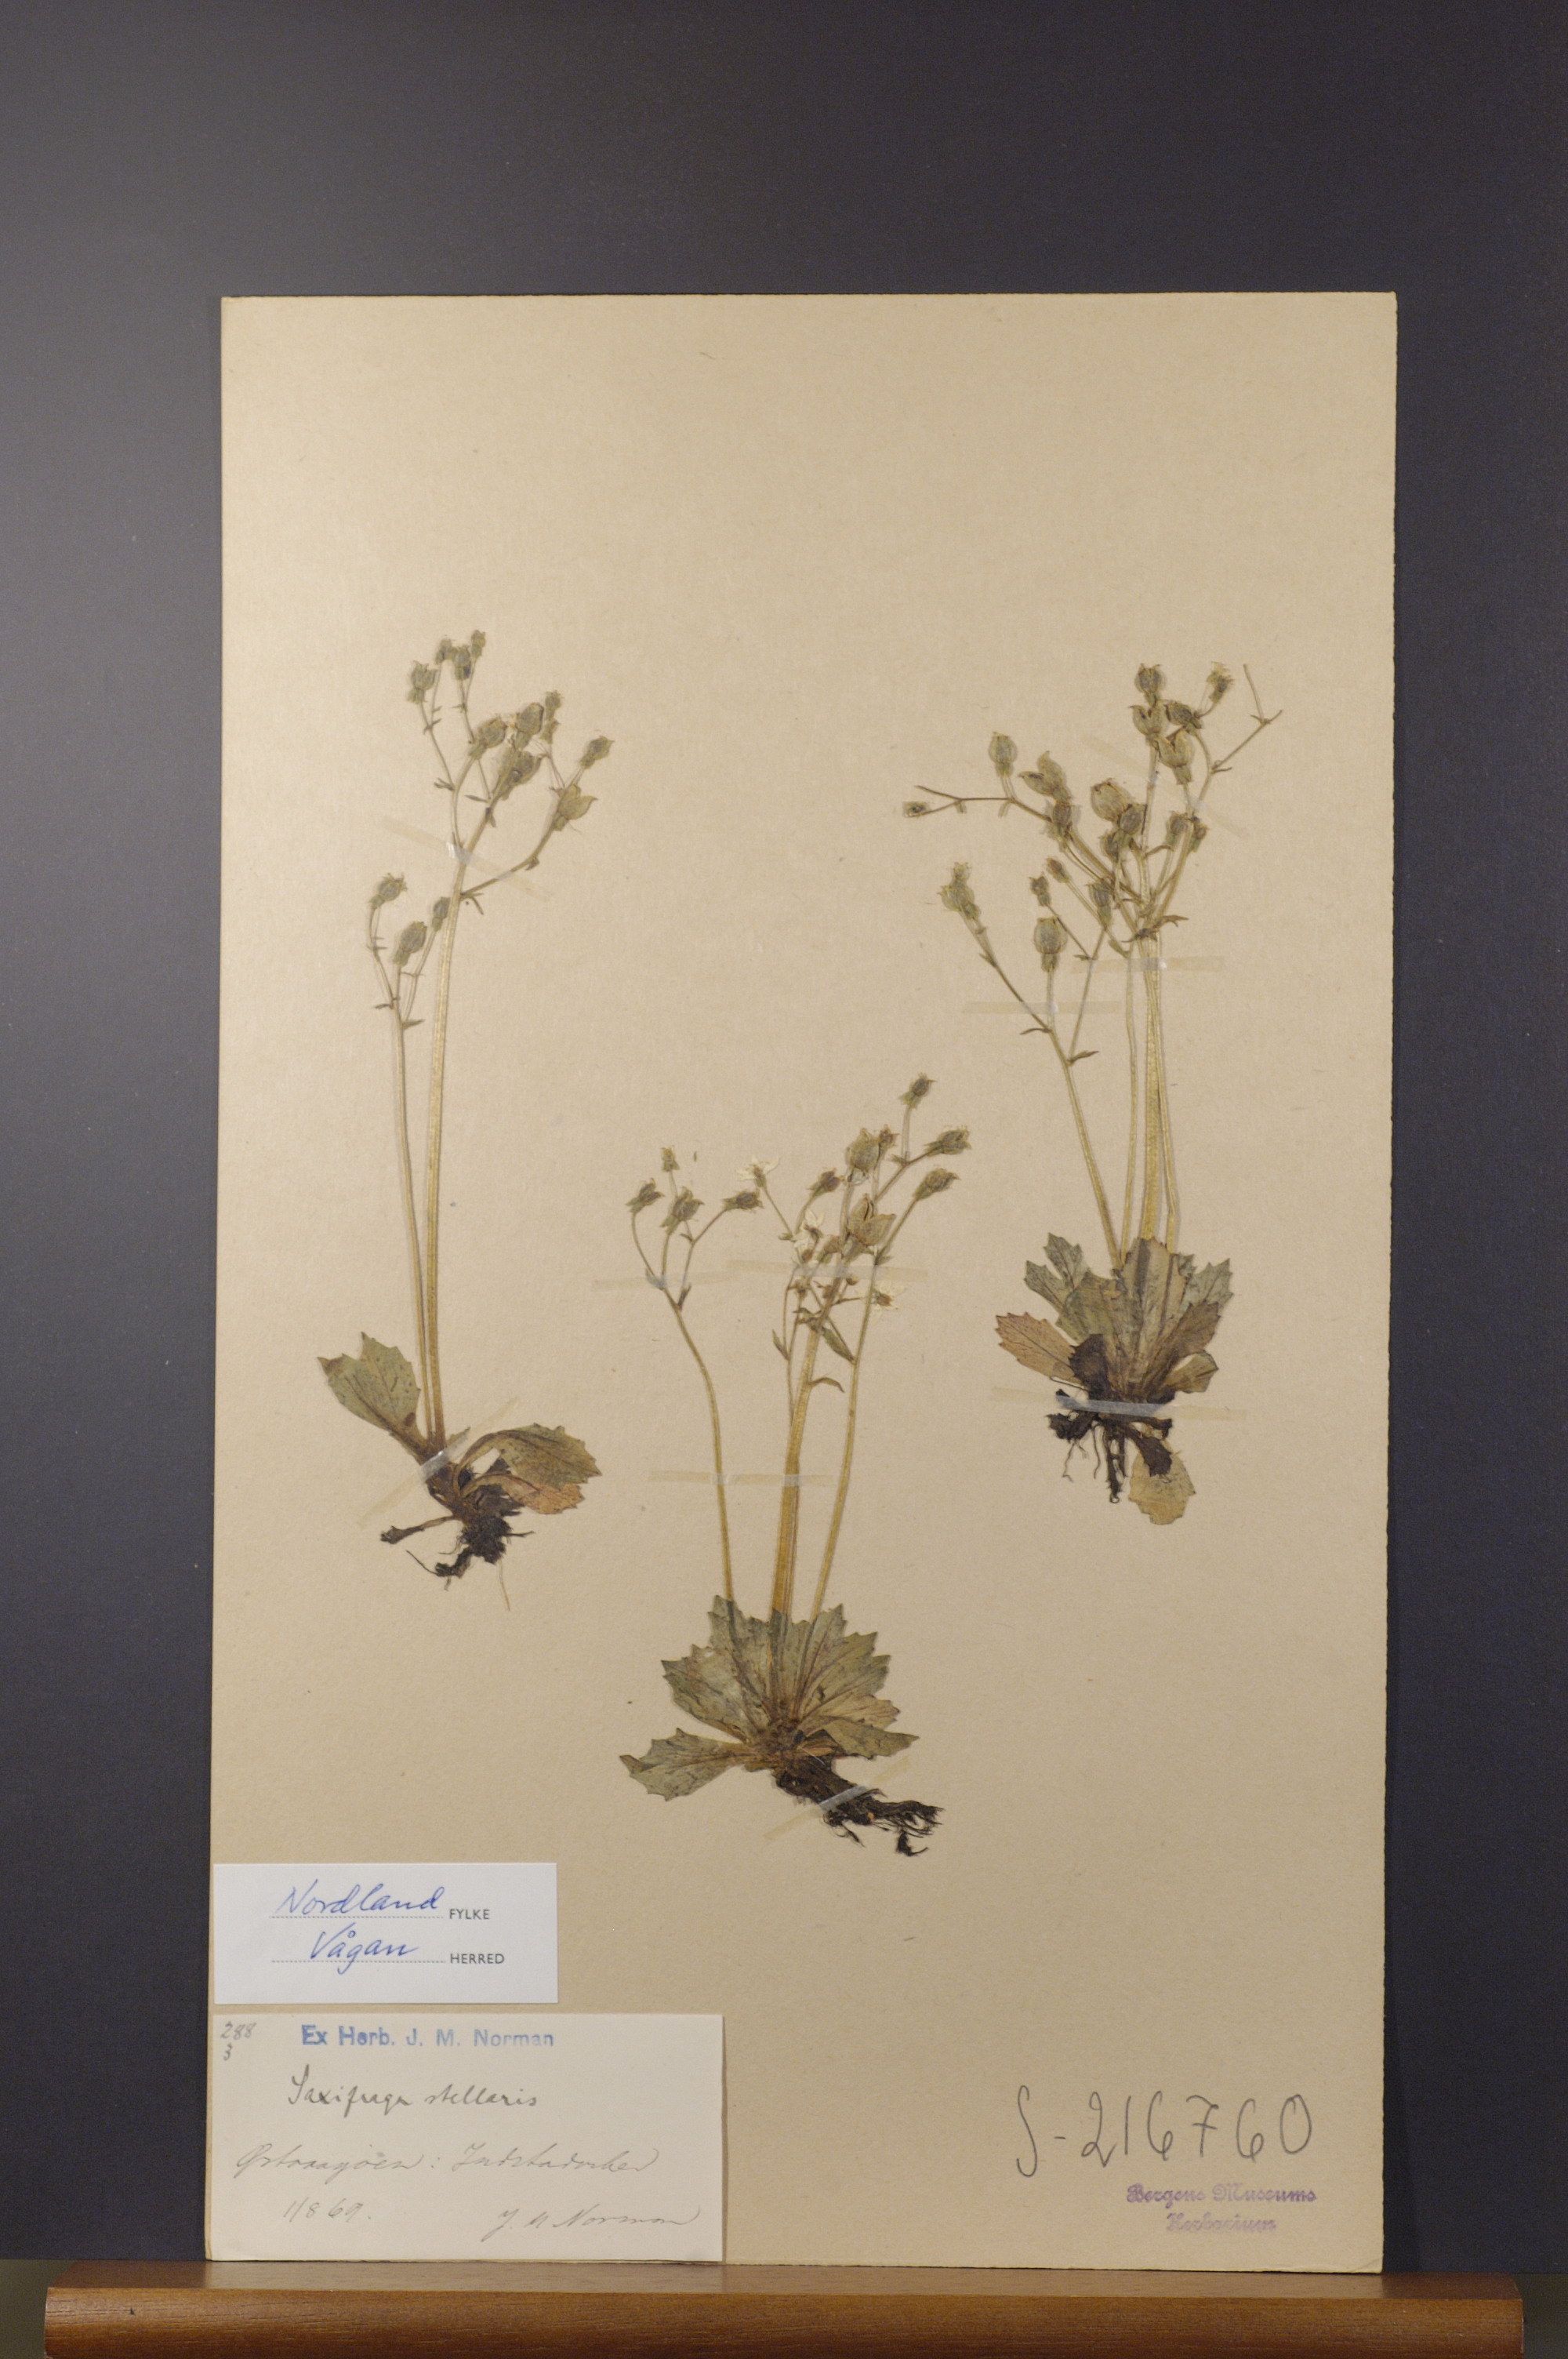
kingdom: Plantae
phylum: Tracheophyta
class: Magnoliopsida
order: Saxifragales
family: Saxifragaceae
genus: Micranthes
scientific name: Micranthes stellaris
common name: Starry saxifrage
